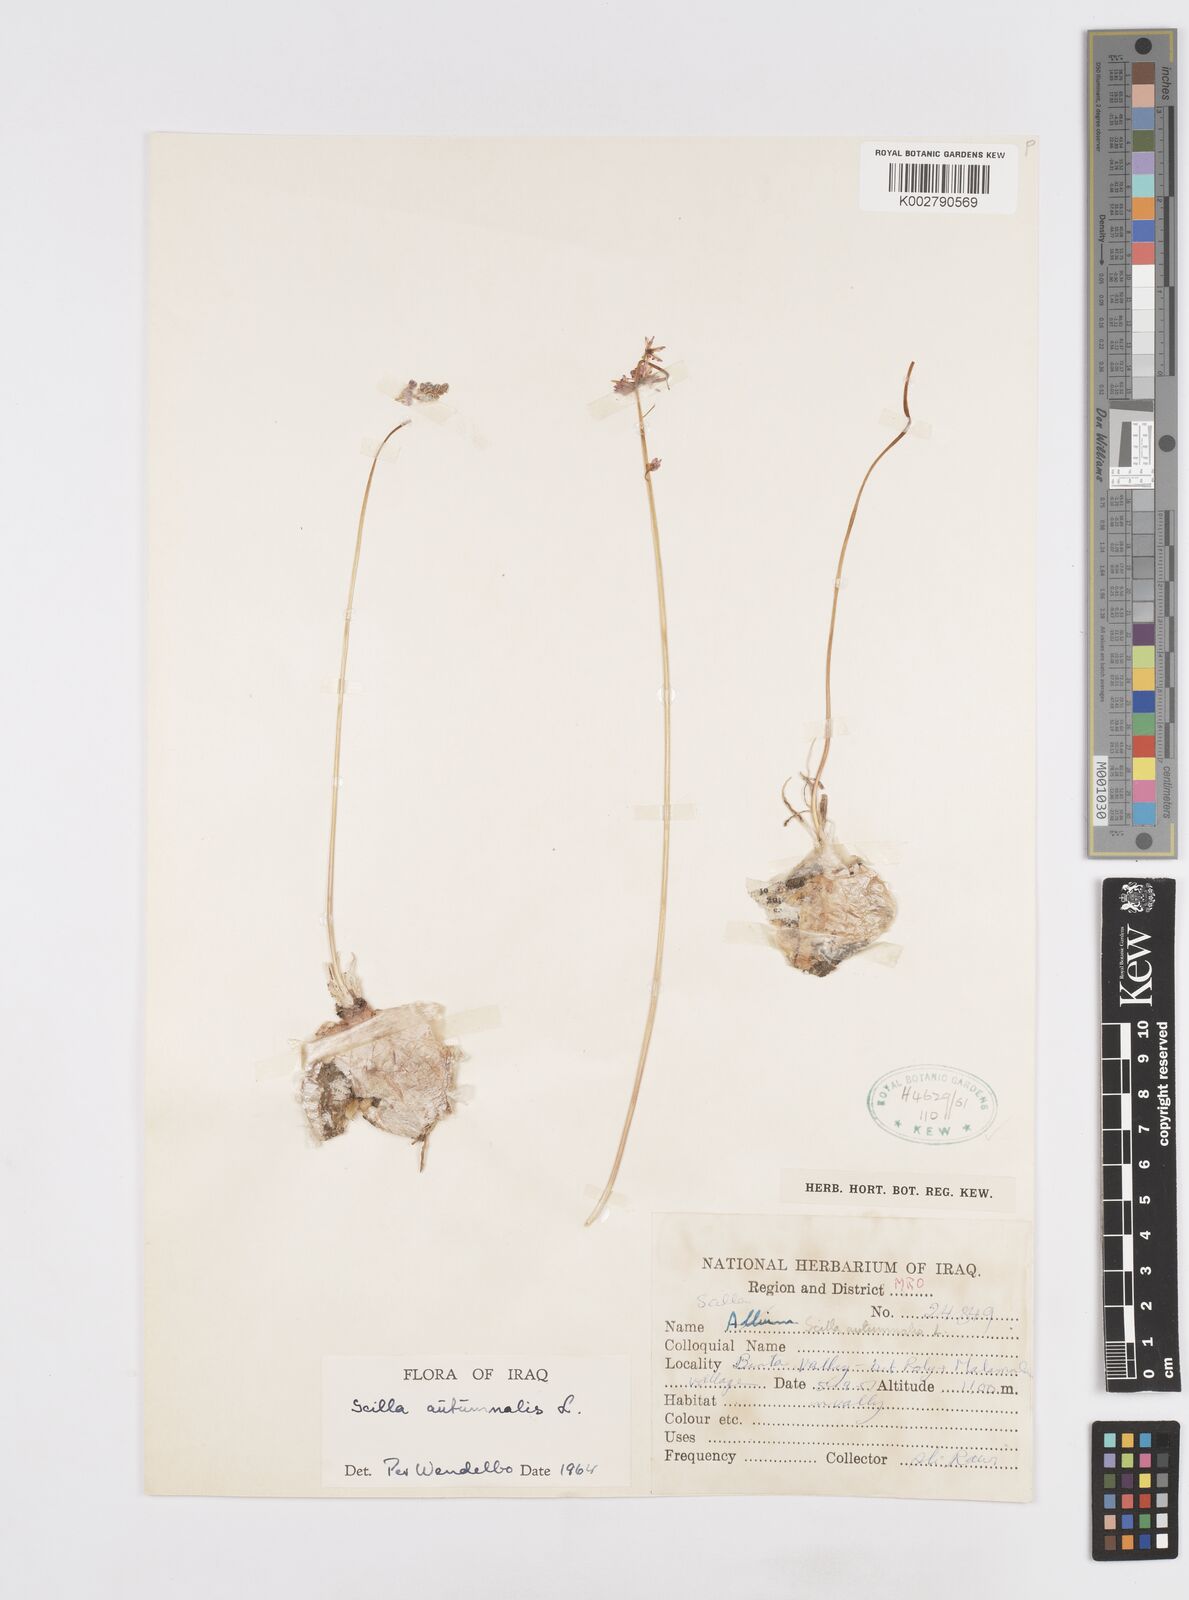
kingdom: Plantae
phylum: Tracheophyta
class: Liliopsida
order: Asparagales
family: Asparagaceae
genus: Prospero
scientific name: Prospero autumnale
